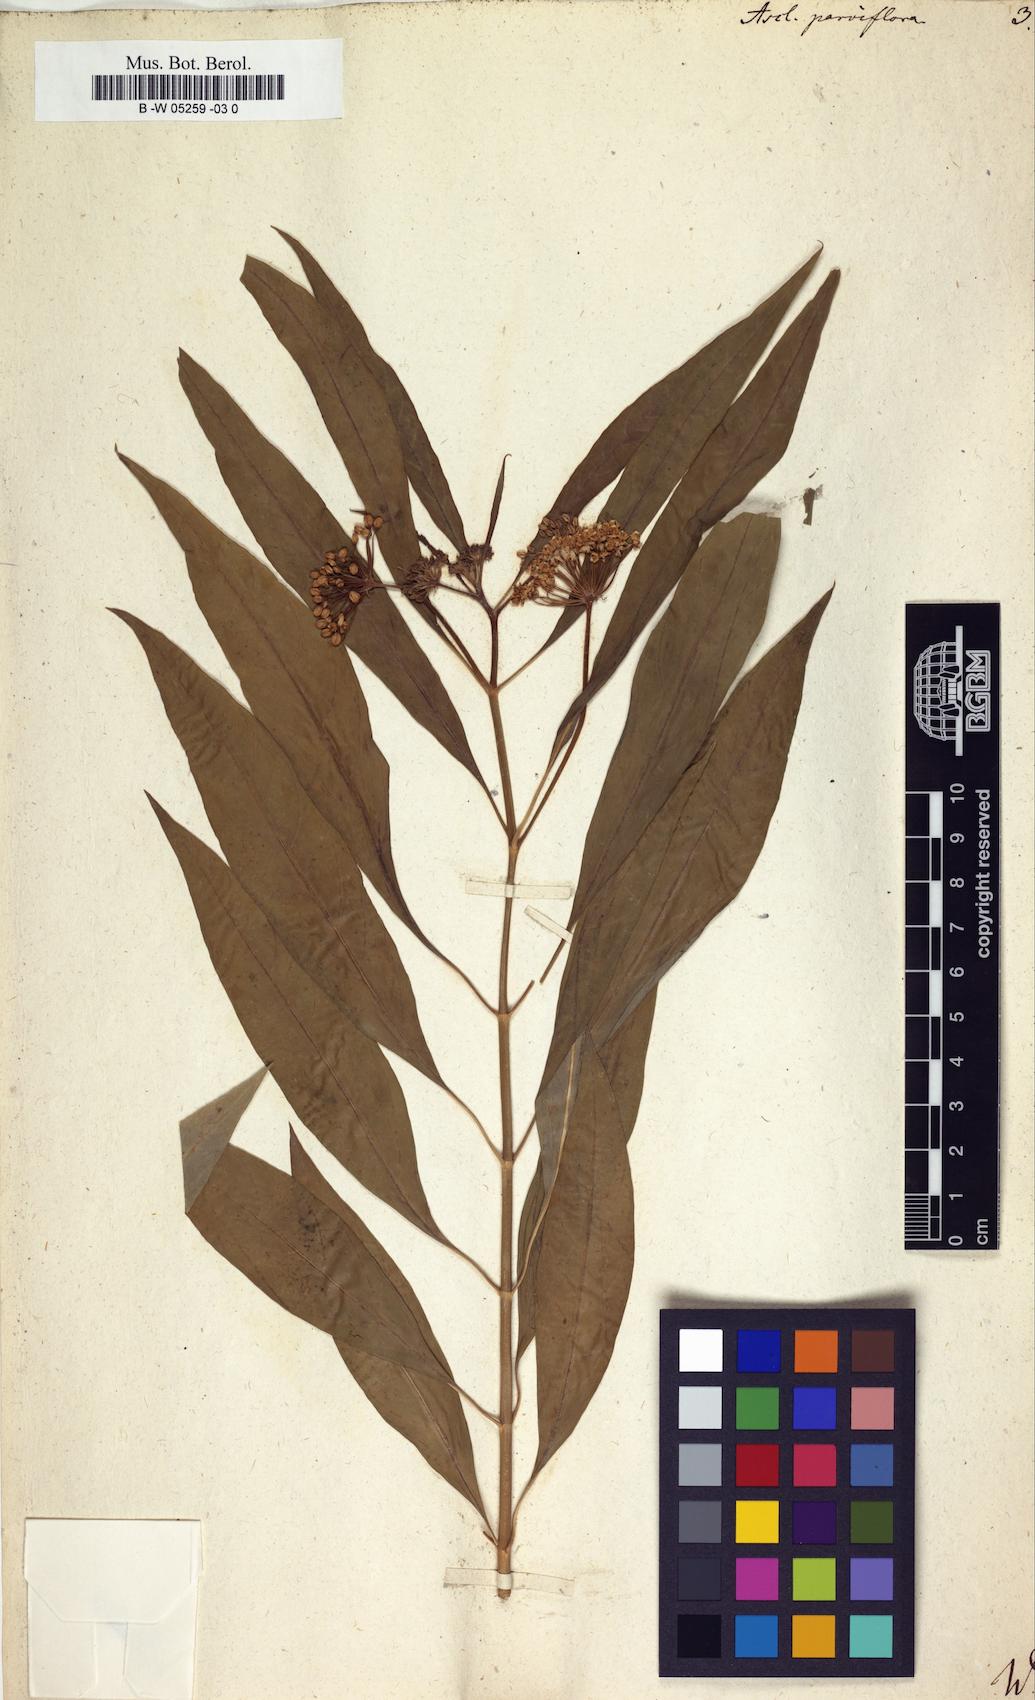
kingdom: Plantae
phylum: Tracheophyta
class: Magnoliopsida
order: Gentianales
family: Apocynaceae
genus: Asclepias
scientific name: Asclepias perennis
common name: Smooth-seed milkweed
